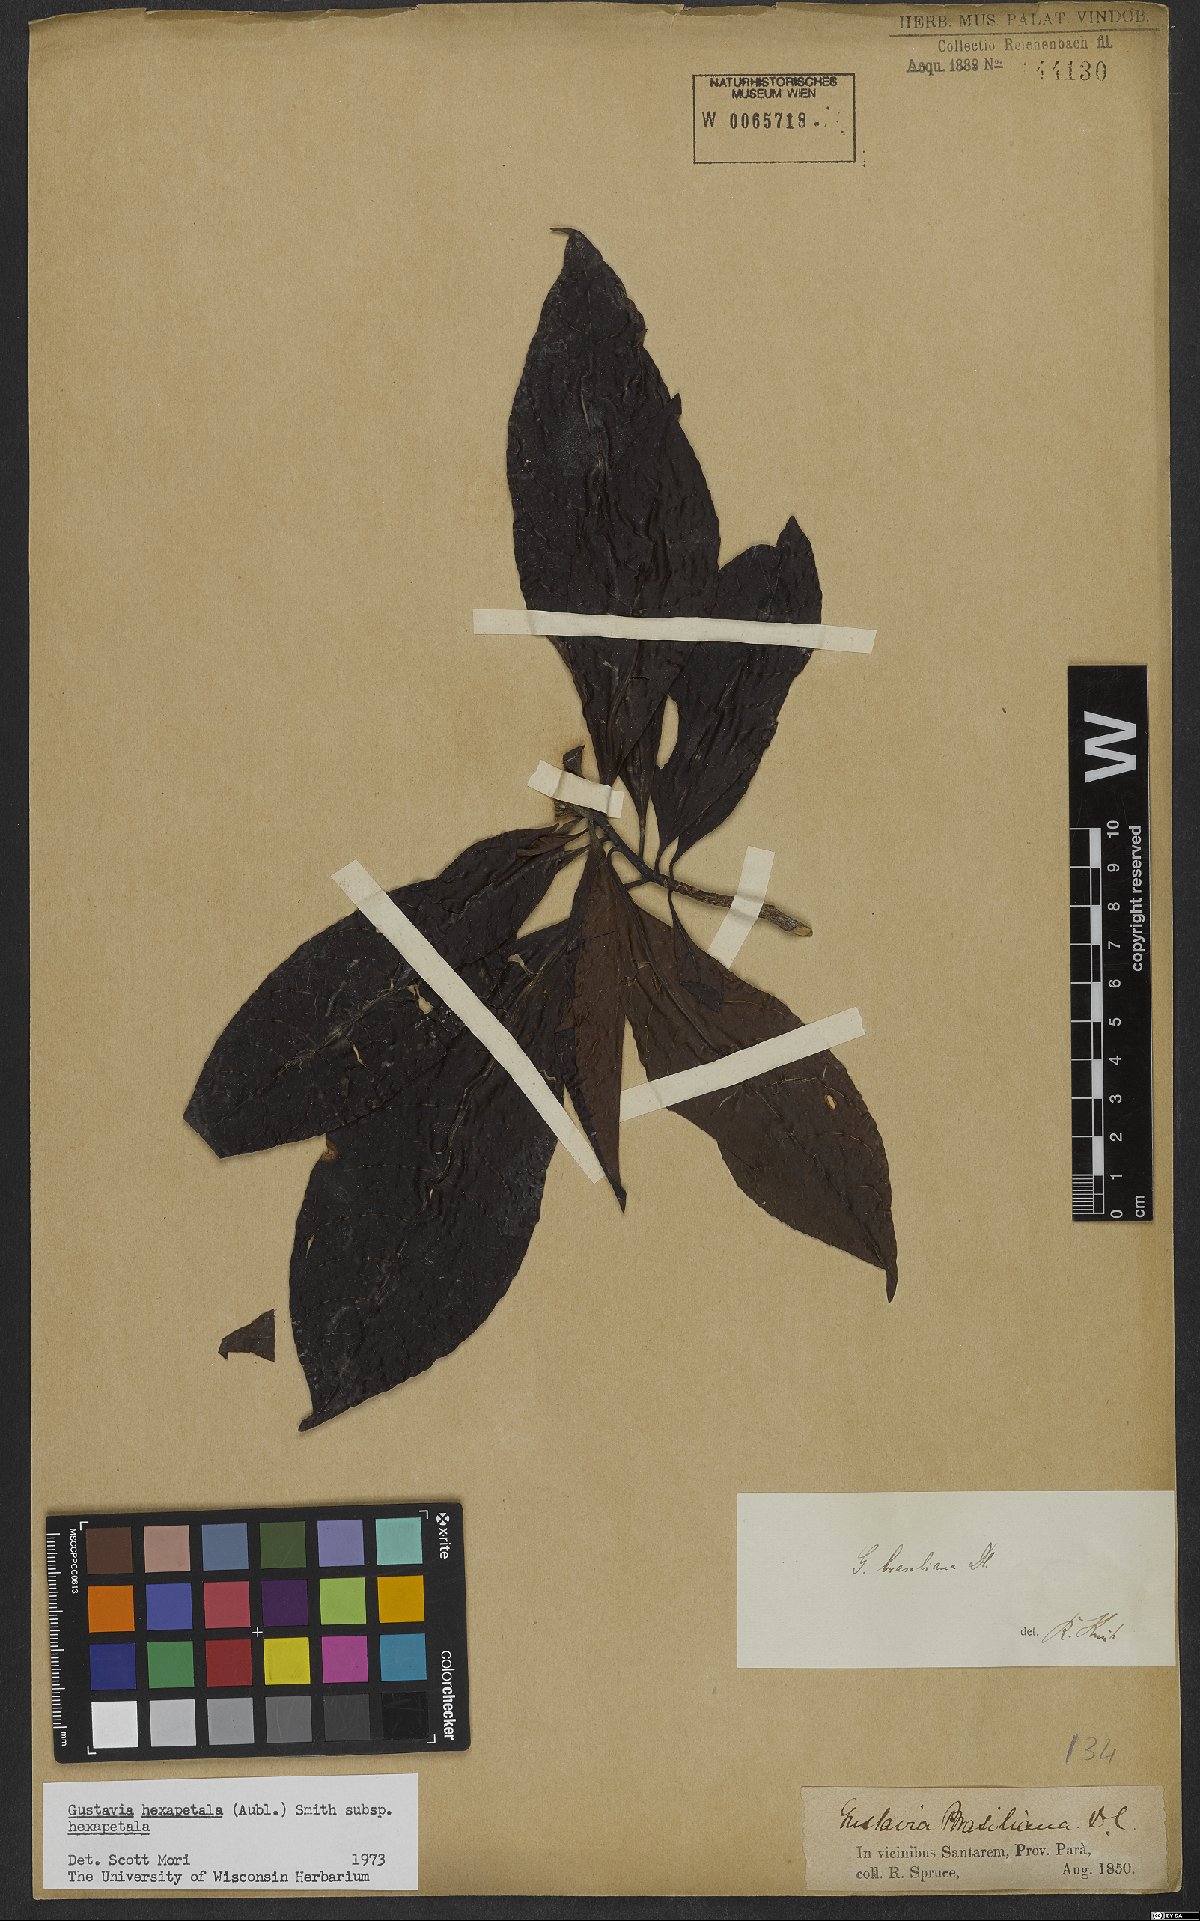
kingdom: Plantae
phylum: Tracheophyta
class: Magnoliopsida
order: Ericales
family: Lecythidaceae
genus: Gustavia
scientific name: Gustavia hexapetala
